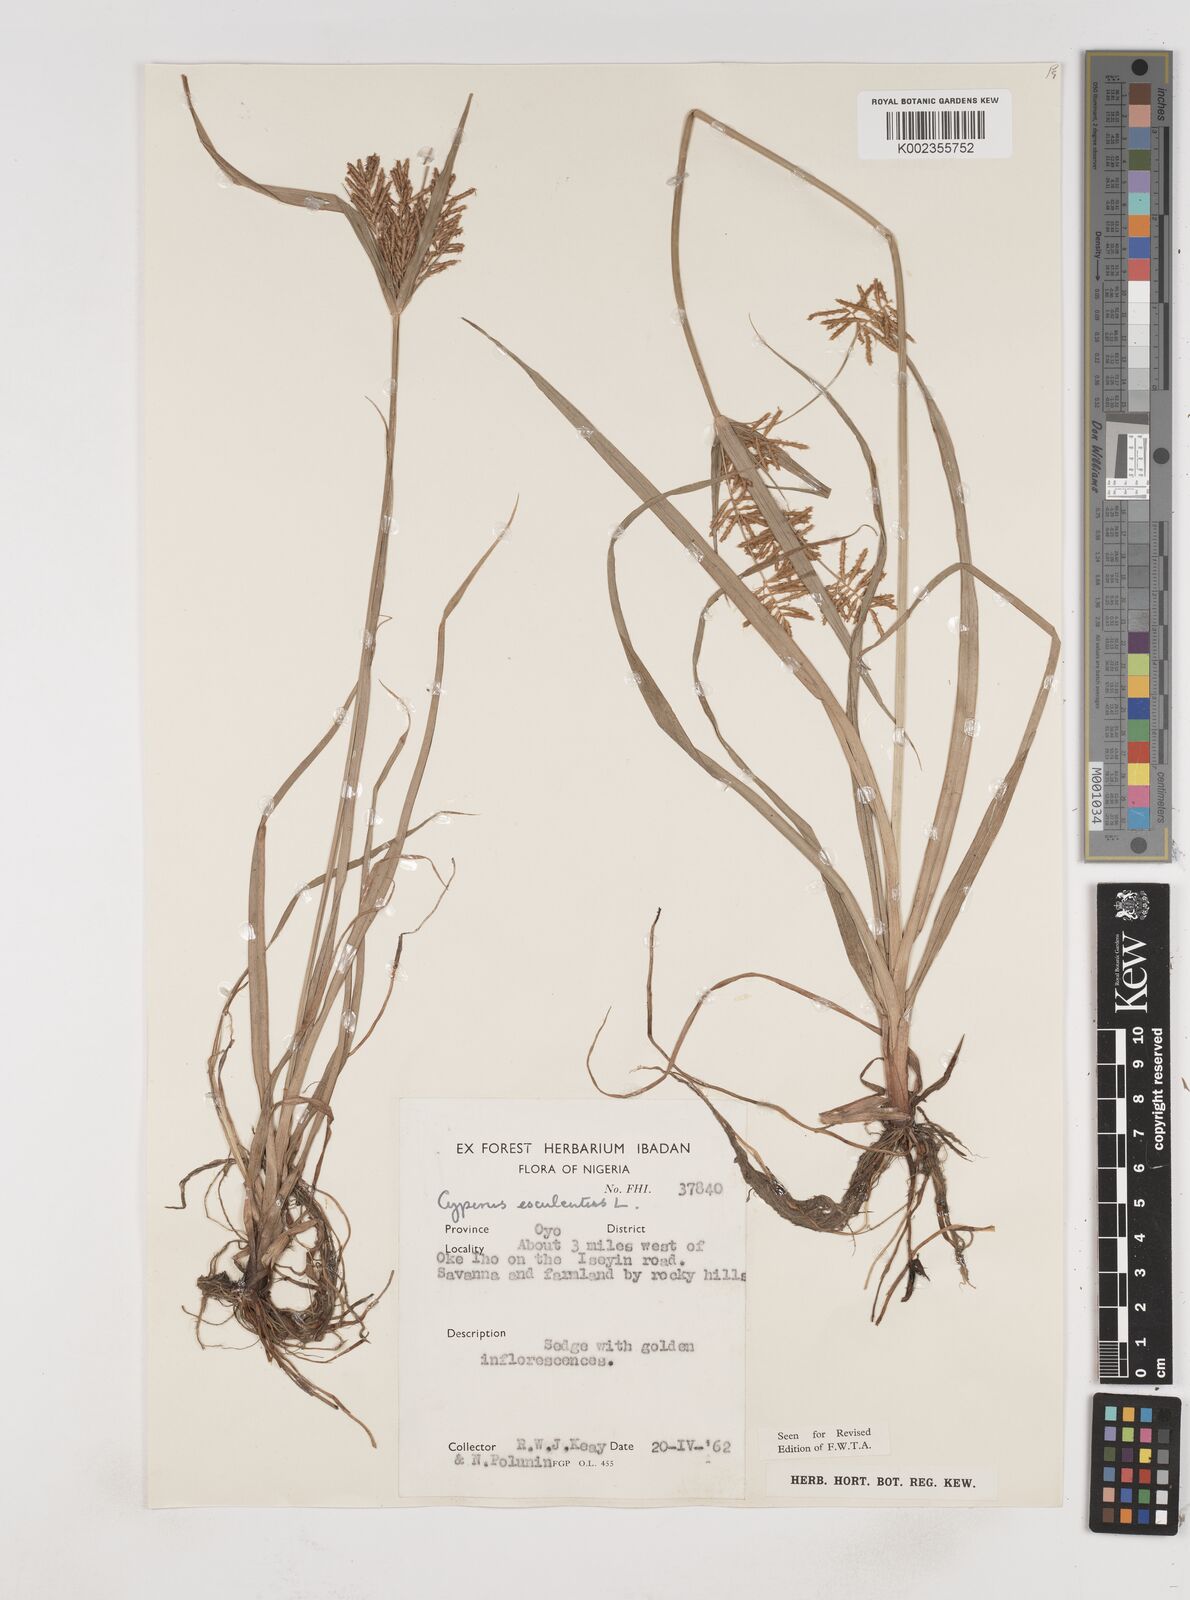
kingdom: Plantae
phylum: Tracheophyta
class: Liliopsida
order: Poales
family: Cyperaceae
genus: Cyperus
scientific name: Cyperus esculentus
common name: Yellow nutsedge
